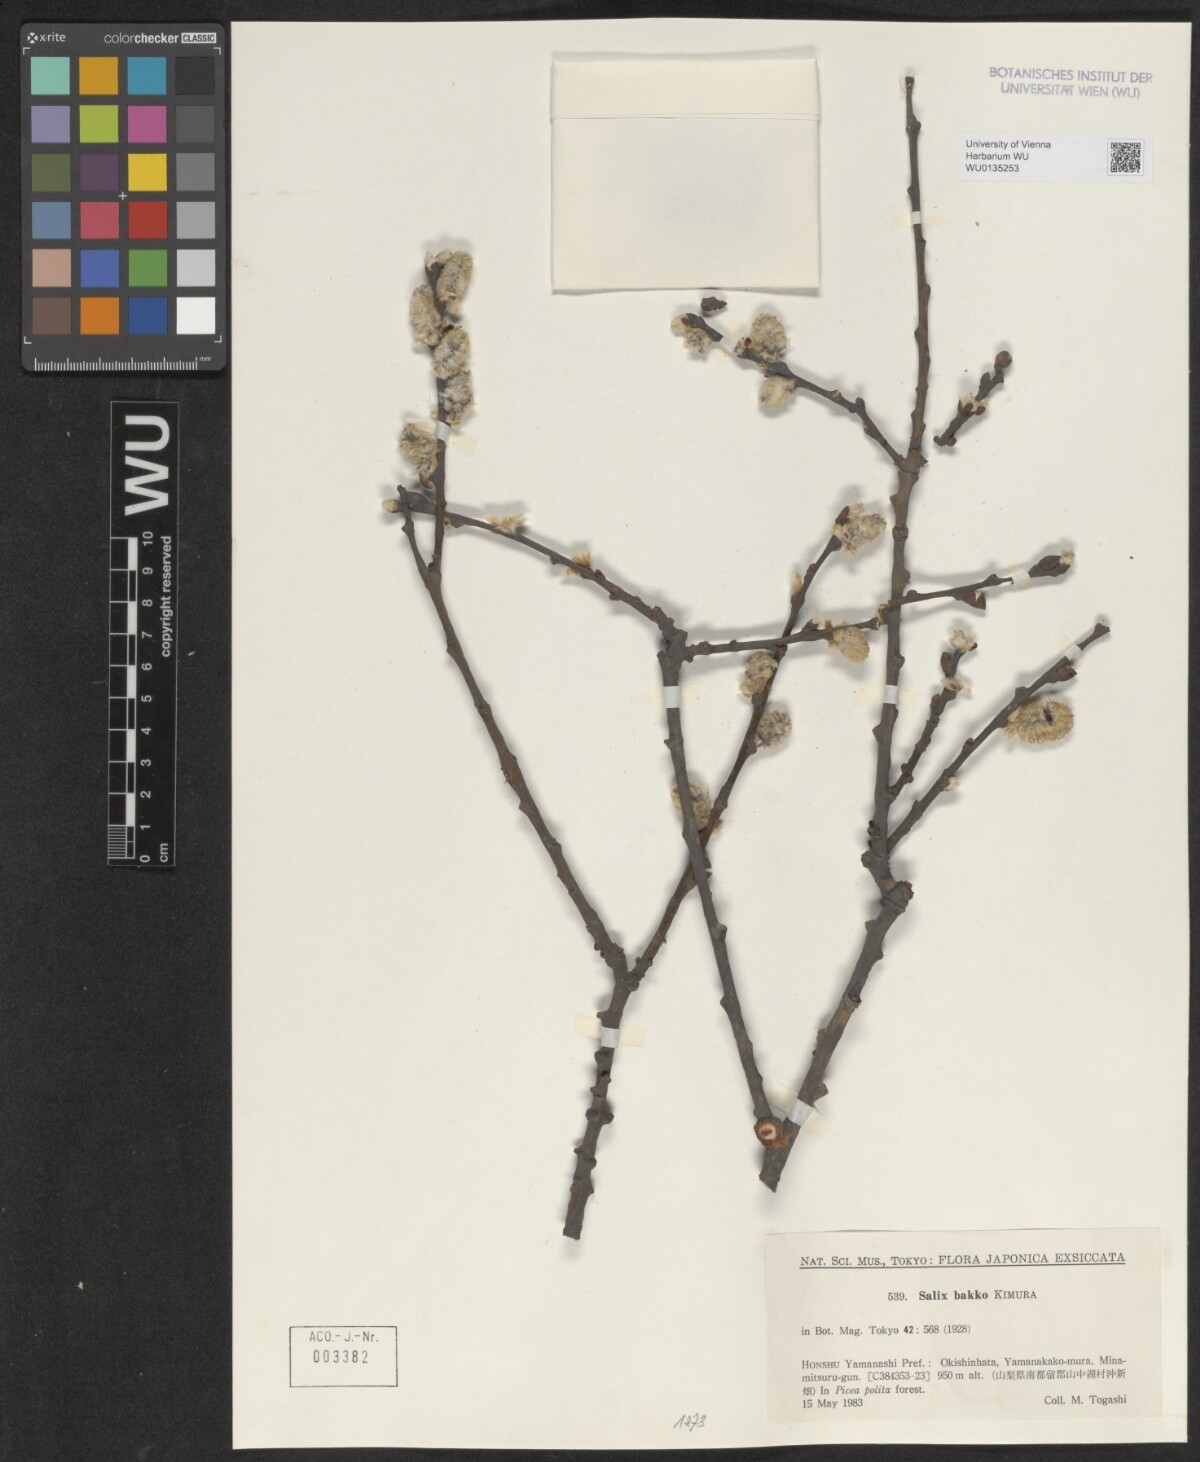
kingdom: Plantae
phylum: Tracheophyta
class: Magnoliopsida
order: Malpighiales
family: Salicaceae
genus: Salix
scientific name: Salix caprea
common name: Goat willow
